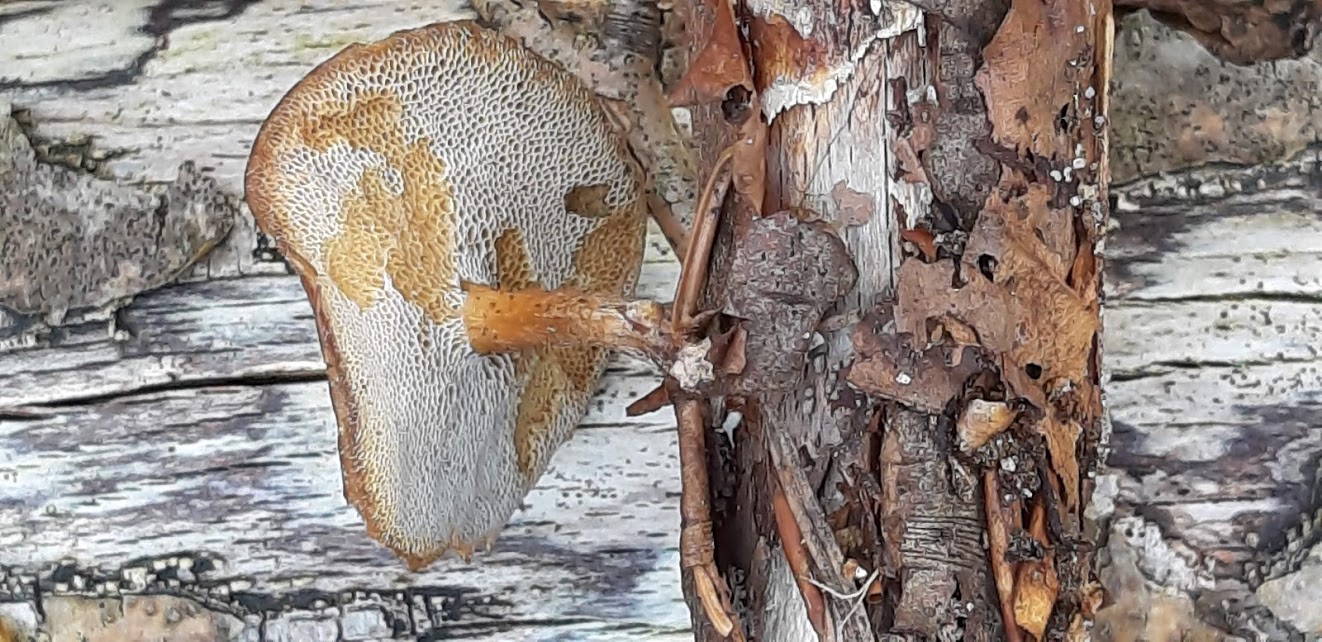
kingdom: Fungi
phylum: Basidiomycota
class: Agaricomycetes
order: Polyporales
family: Polyporaceae
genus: Lentinus
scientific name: Lentinus brumalis
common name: vinter-stilkporesvamp
